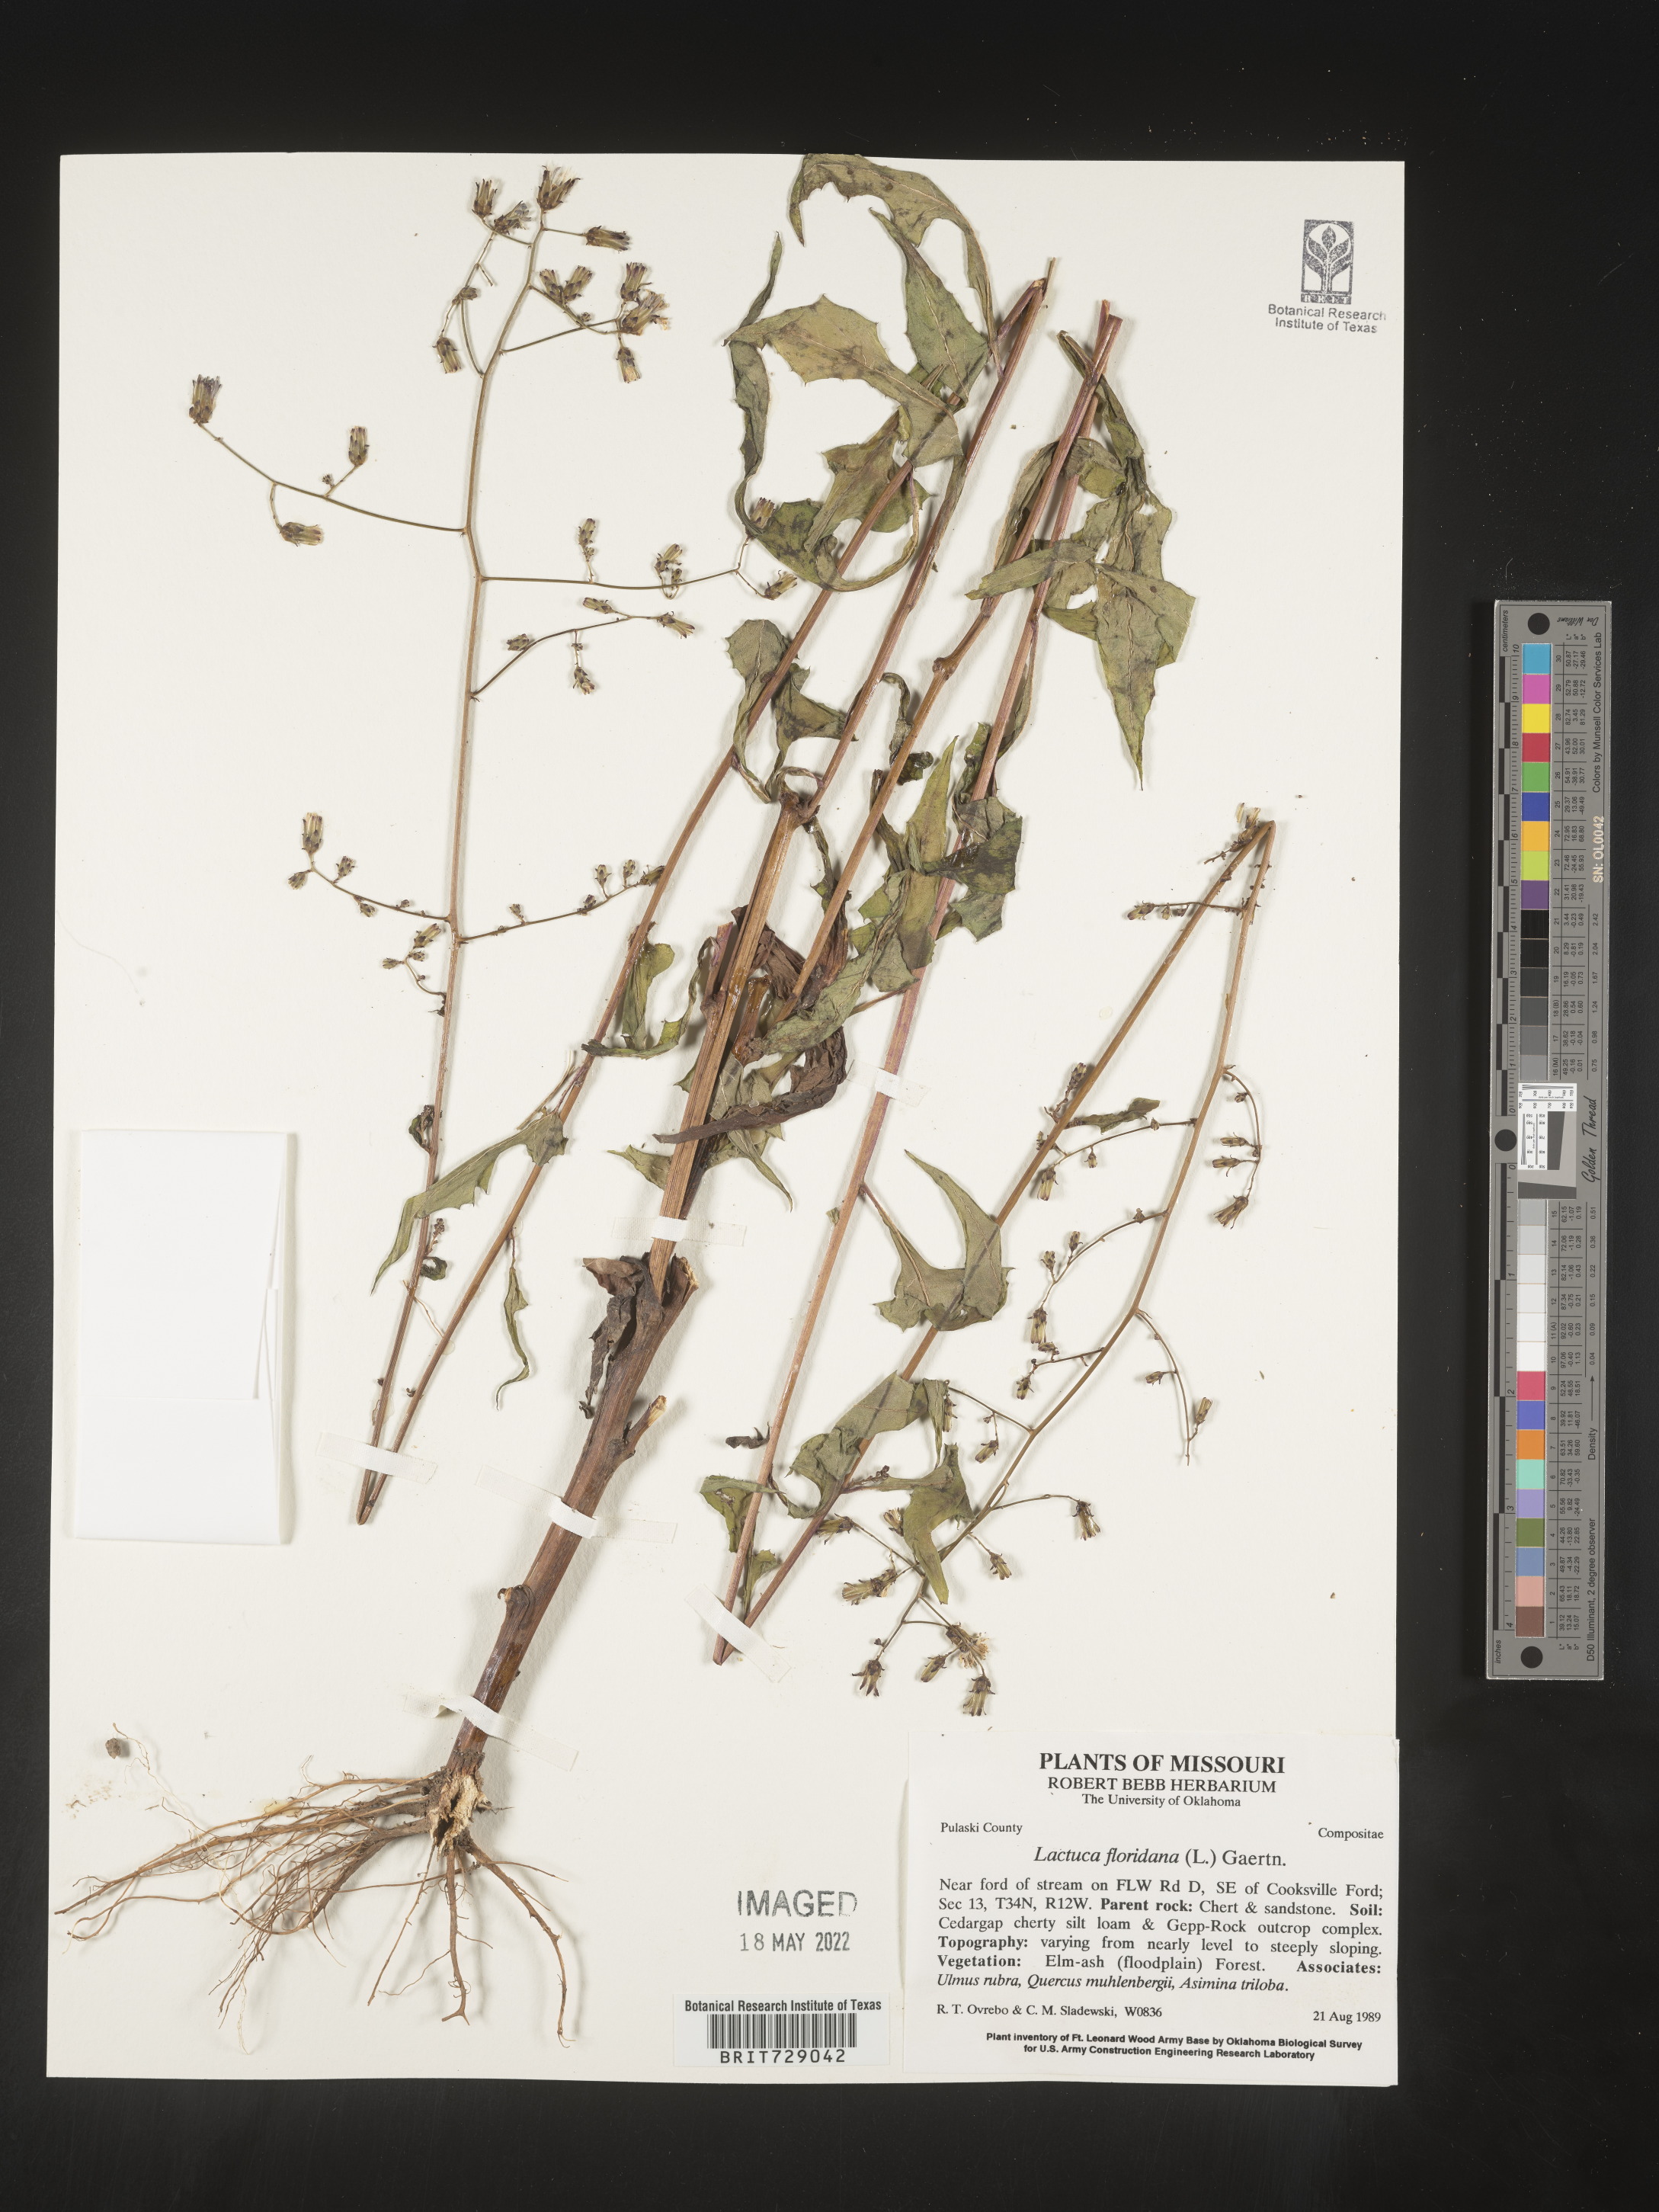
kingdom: Plantae
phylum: Tracheophyta
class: Magnoliopsida
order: Asterales
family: Asteraceae
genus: Lactuca
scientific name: Lactuca floridana
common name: Woodland lettuce
